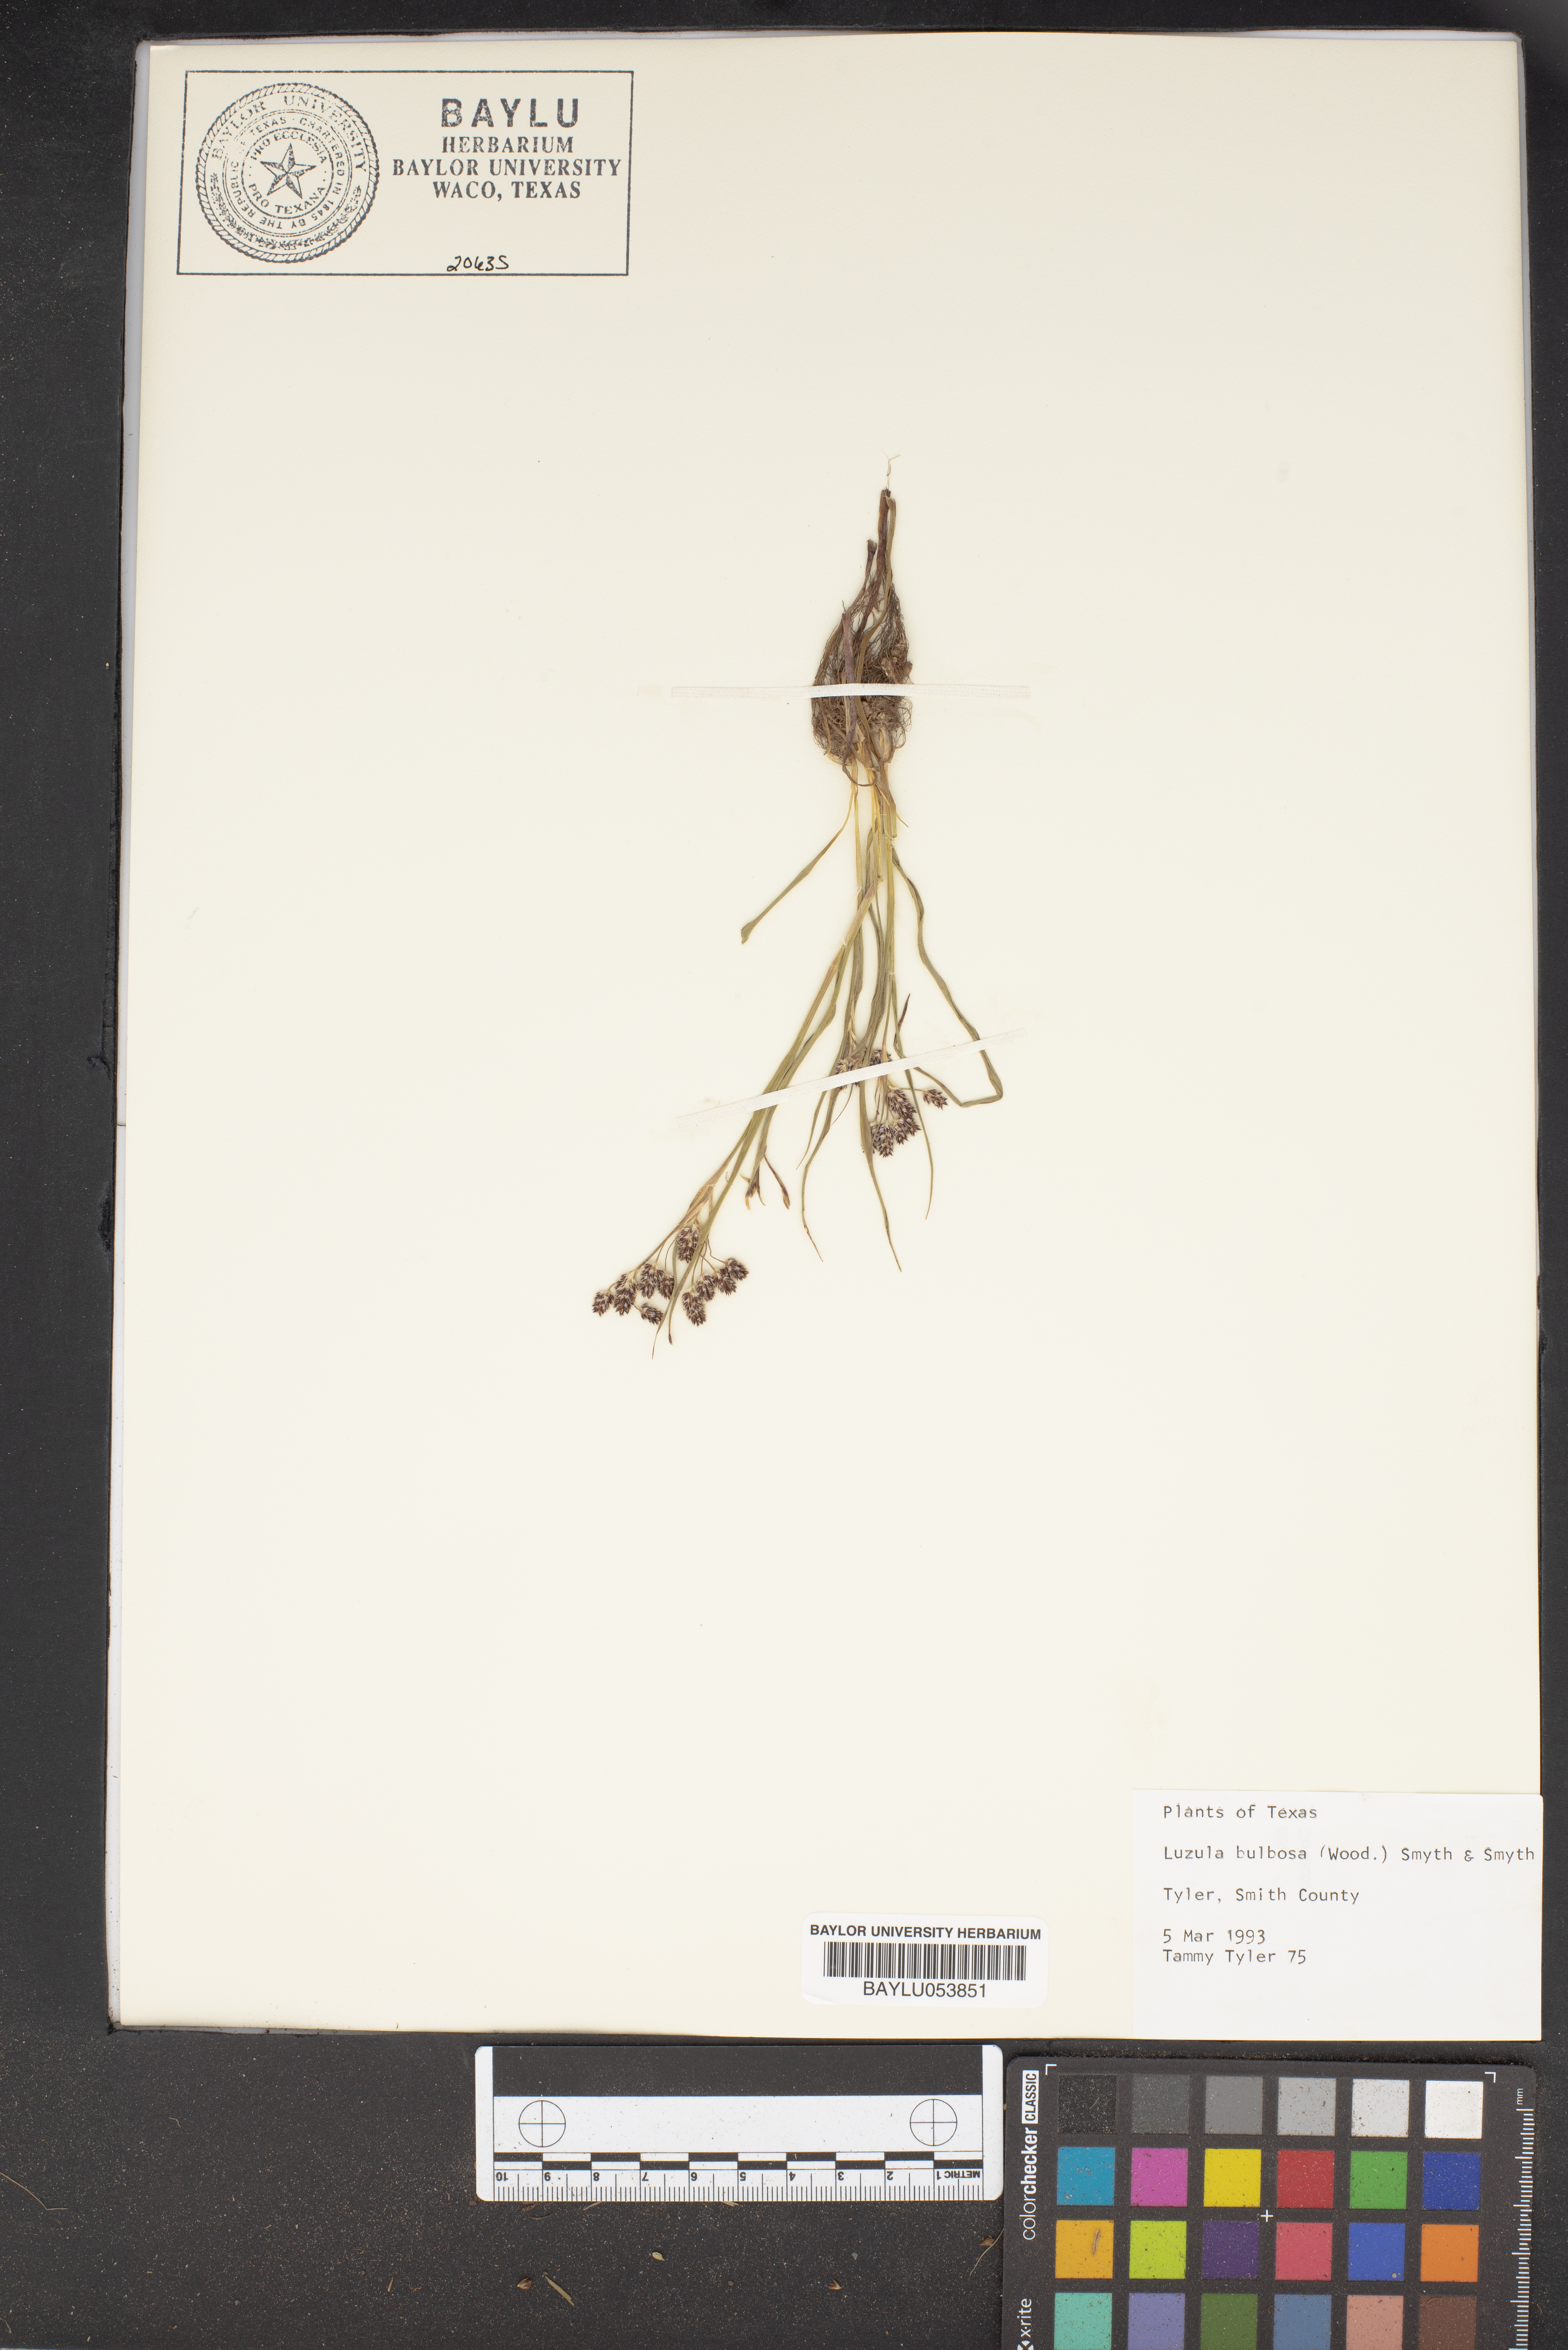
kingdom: Plantae
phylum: Tracheophyta
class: Liliopsida
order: Poales
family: Juncaceae
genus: Luzula
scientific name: Luzula bulbosa
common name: Bulbous woodrush
